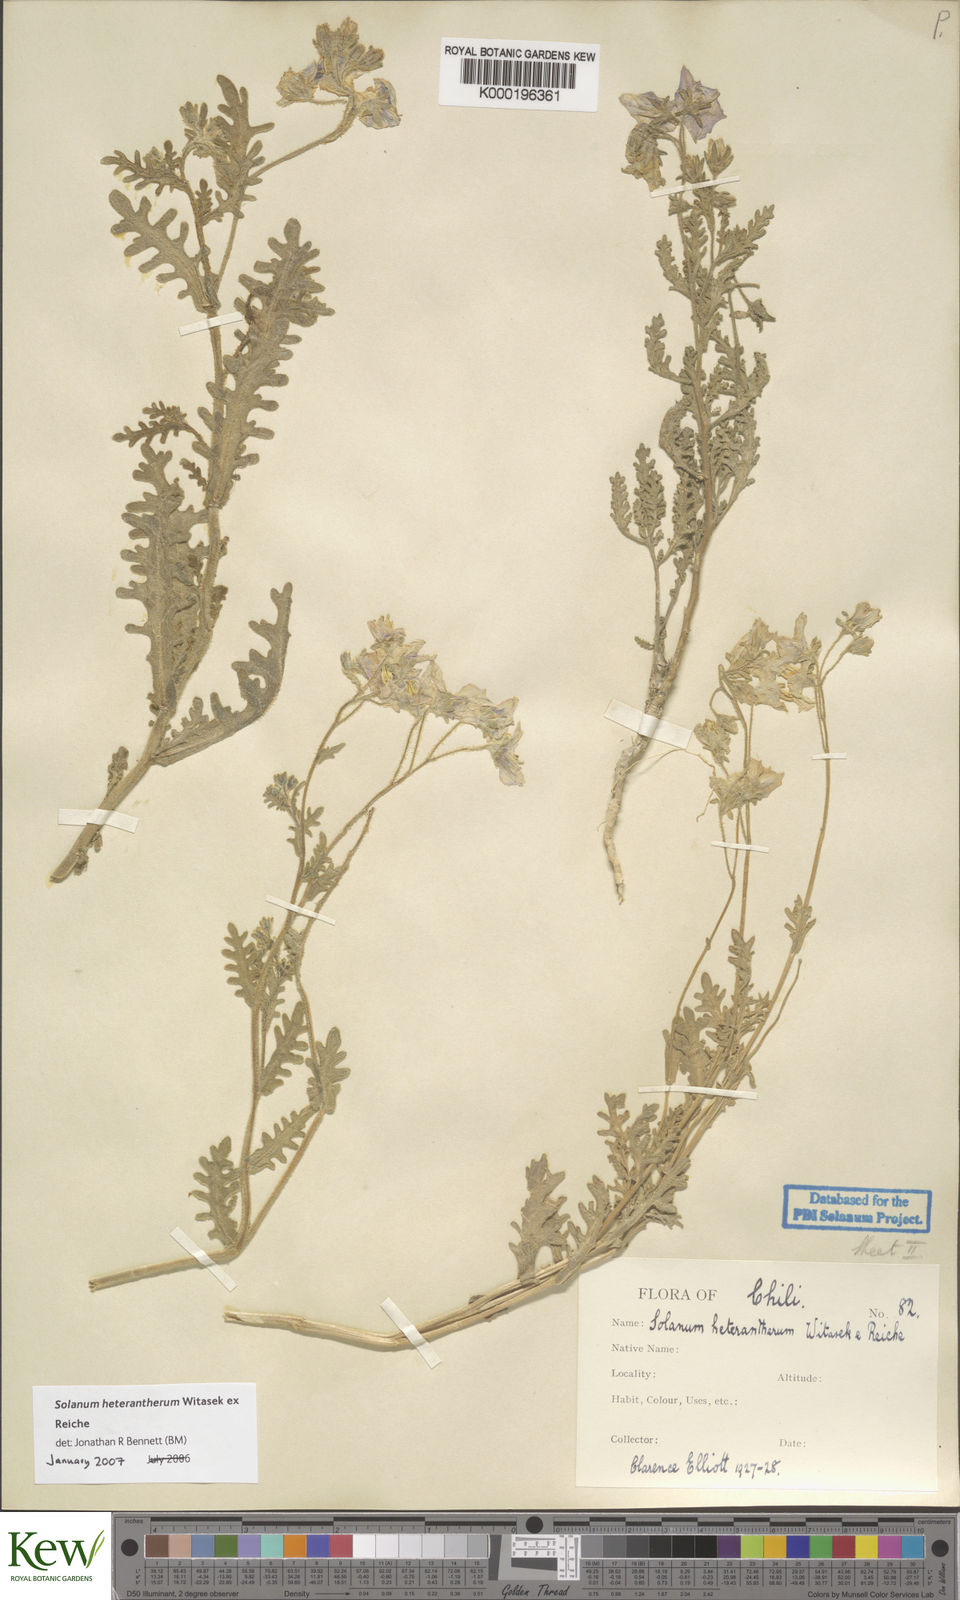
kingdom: Plantae
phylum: Tracheophyta
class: Magnoliopsida
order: Solanales
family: Solanaceae
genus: Solanum
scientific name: Solanum trinominum
